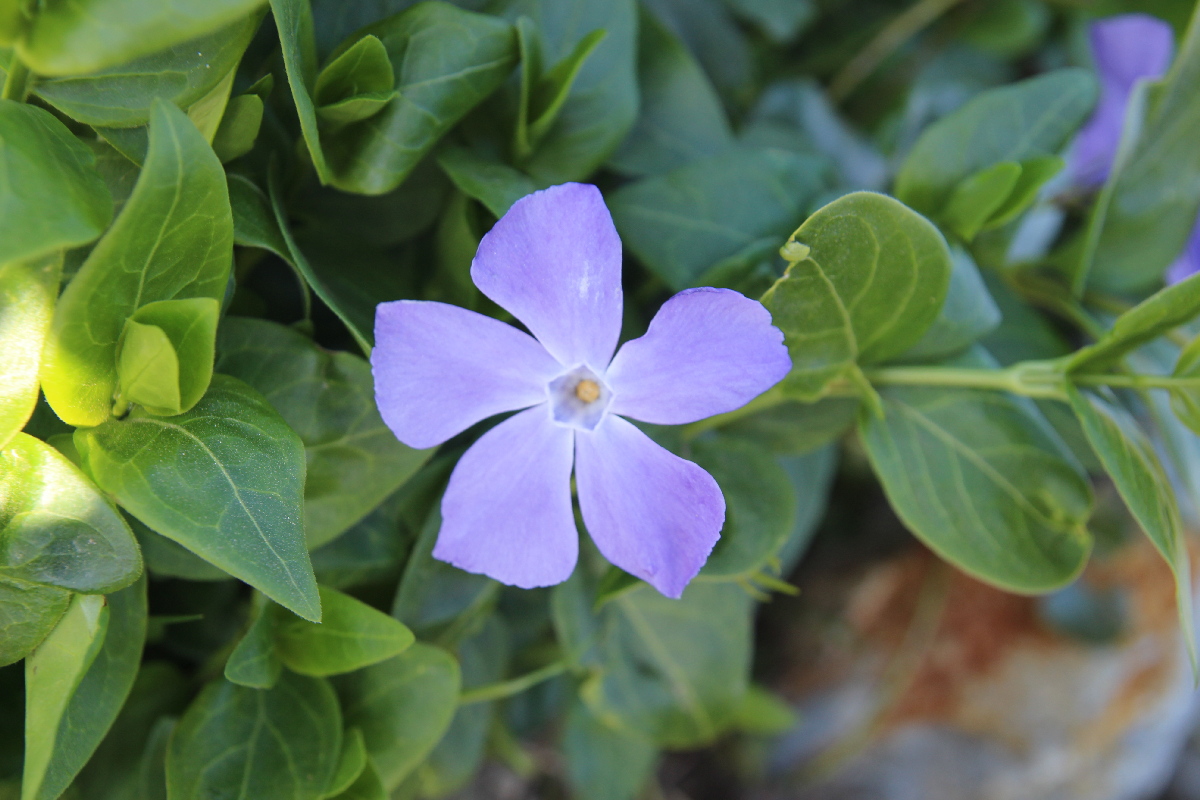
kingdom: Plantae
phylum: Tracheophyta
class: Magnoliopsida
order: Gentianales
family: Apocynaceae
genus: Vinca
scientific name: Vinca major
